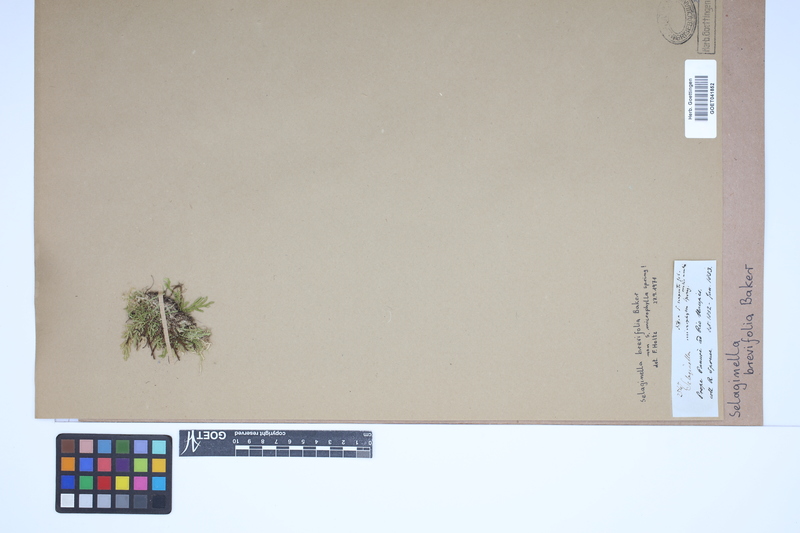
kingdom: Plantae
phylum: Tracheophyta
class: Lycopodiopsida
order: Selaginellales
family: Selaginellaceae
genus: Selaginella
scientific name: Selaginella brevifolia
